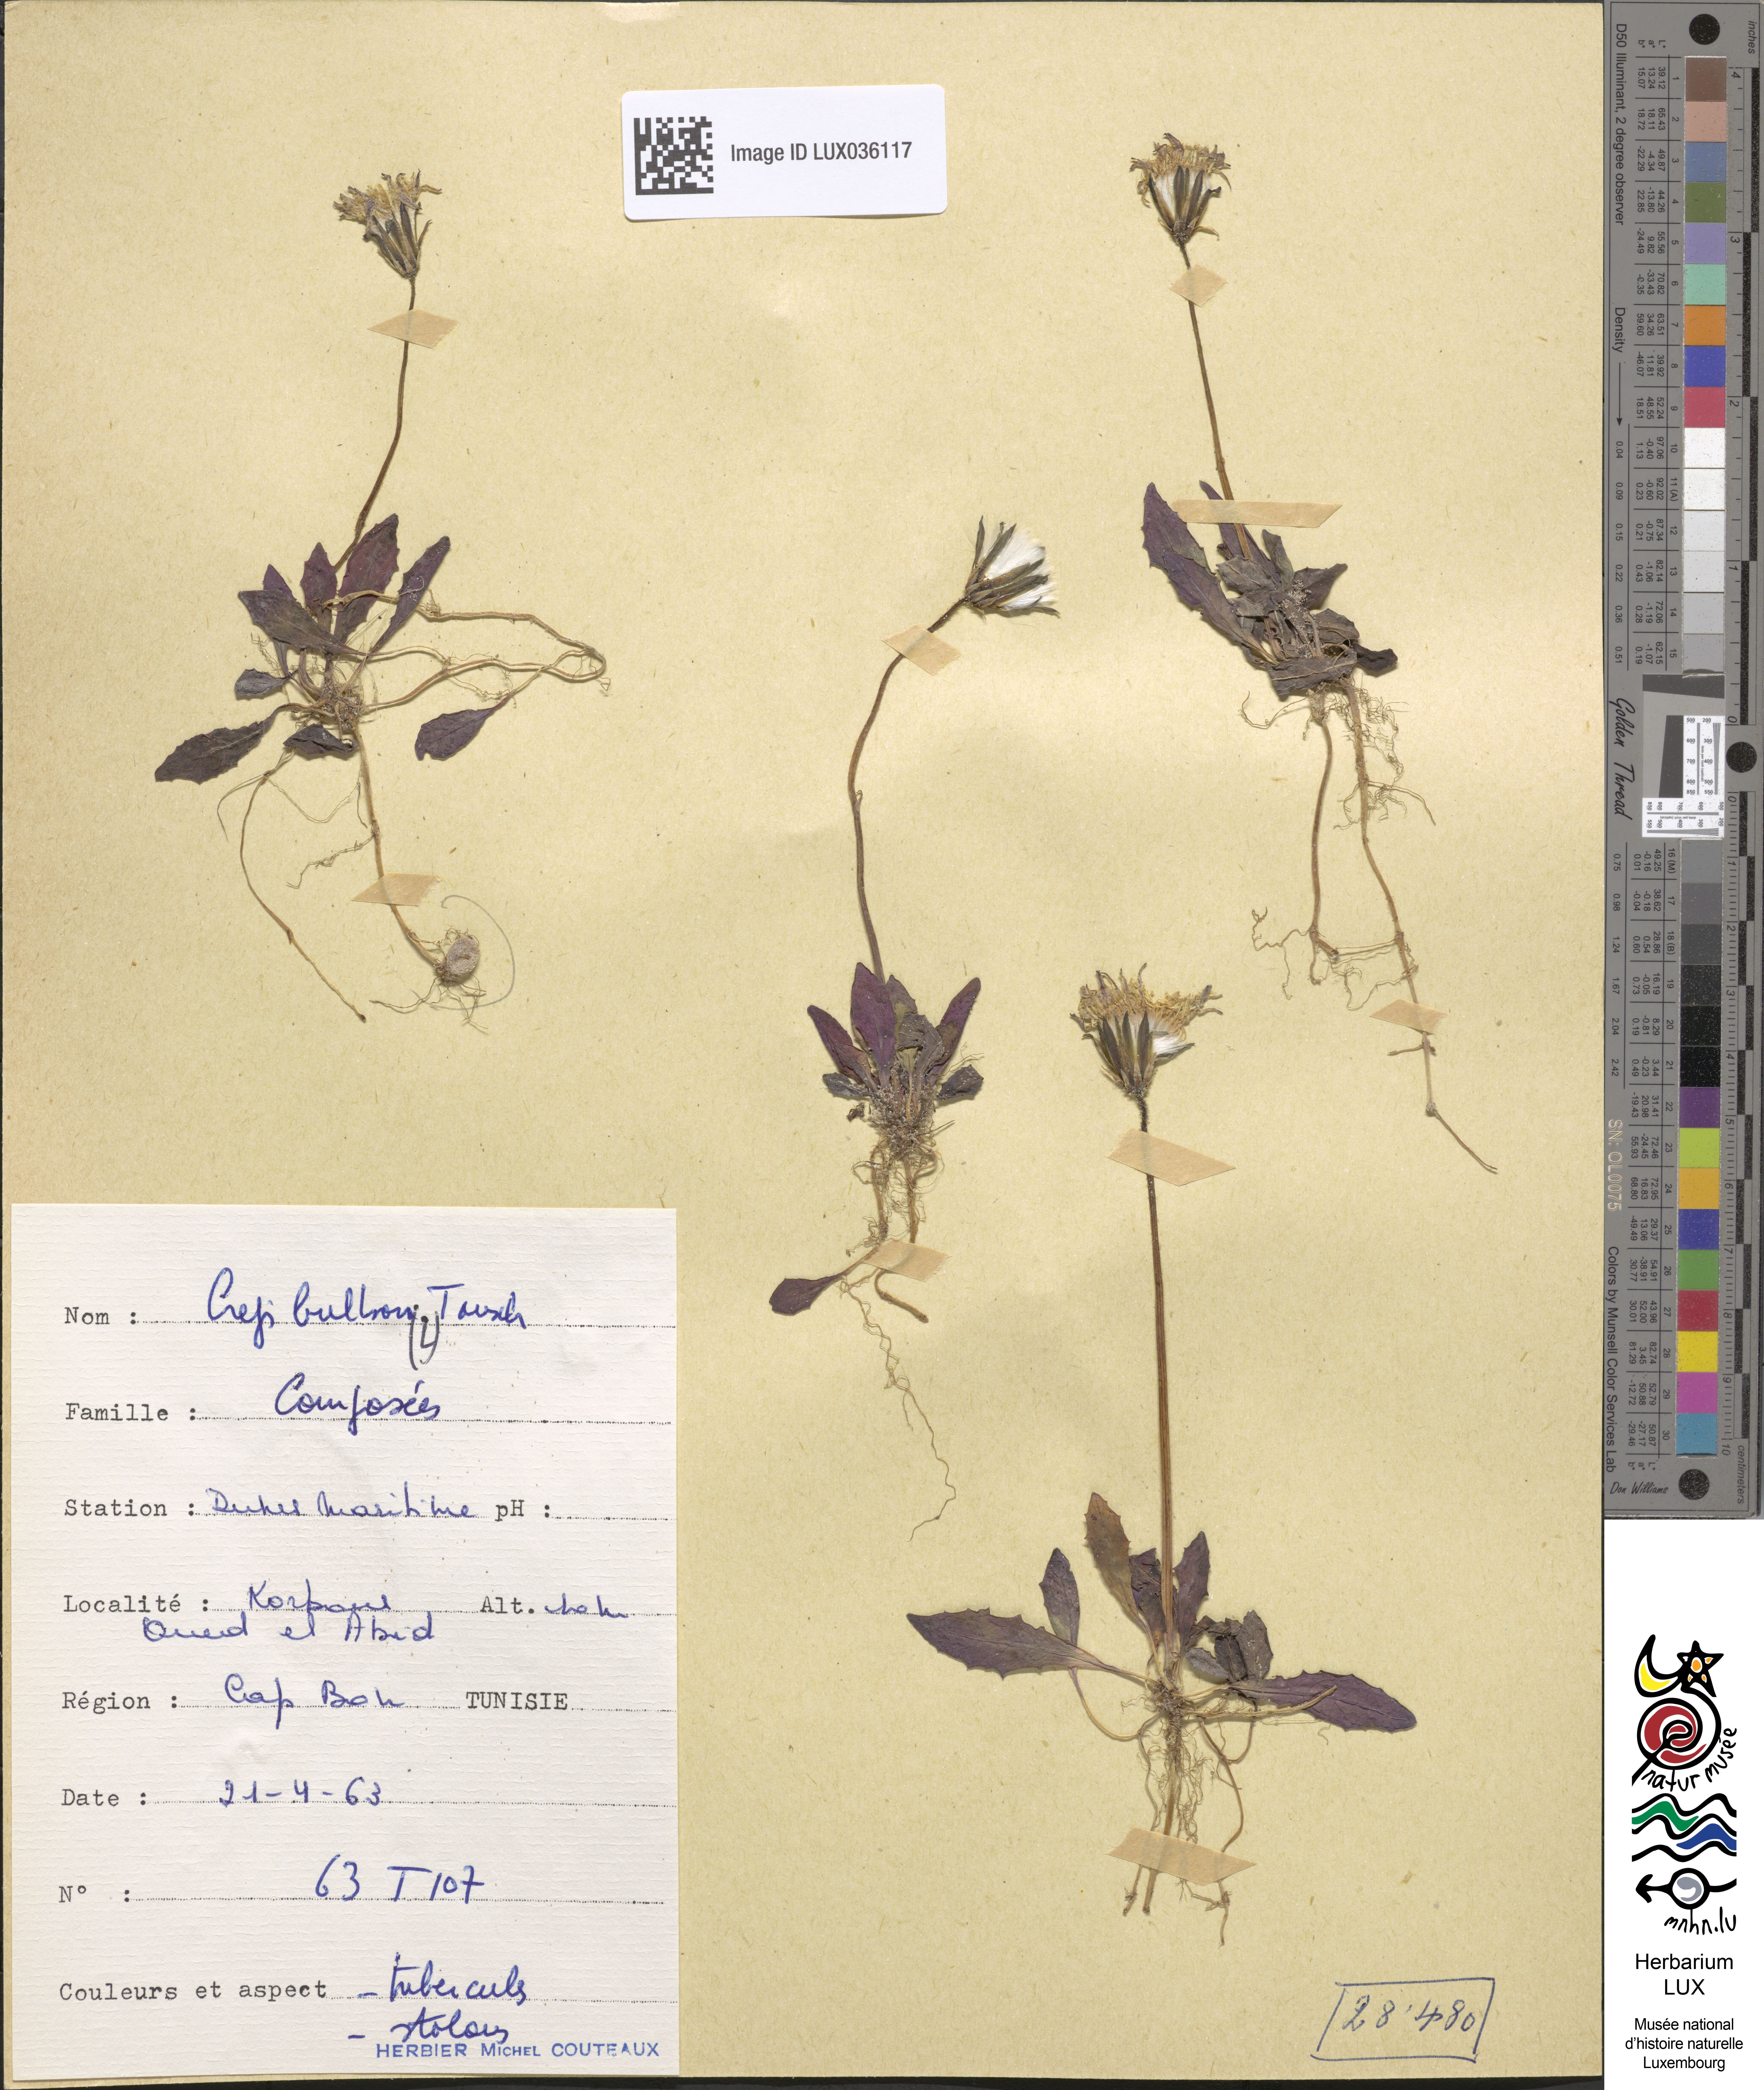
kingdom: Plantae
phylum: Tracheophyta
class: Magnoliopsida
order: Asterales
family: Asteraceae
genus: Aetheorhiza
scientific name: Aetheorhiza bulbosa
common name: Tuberous hawk's-beard
